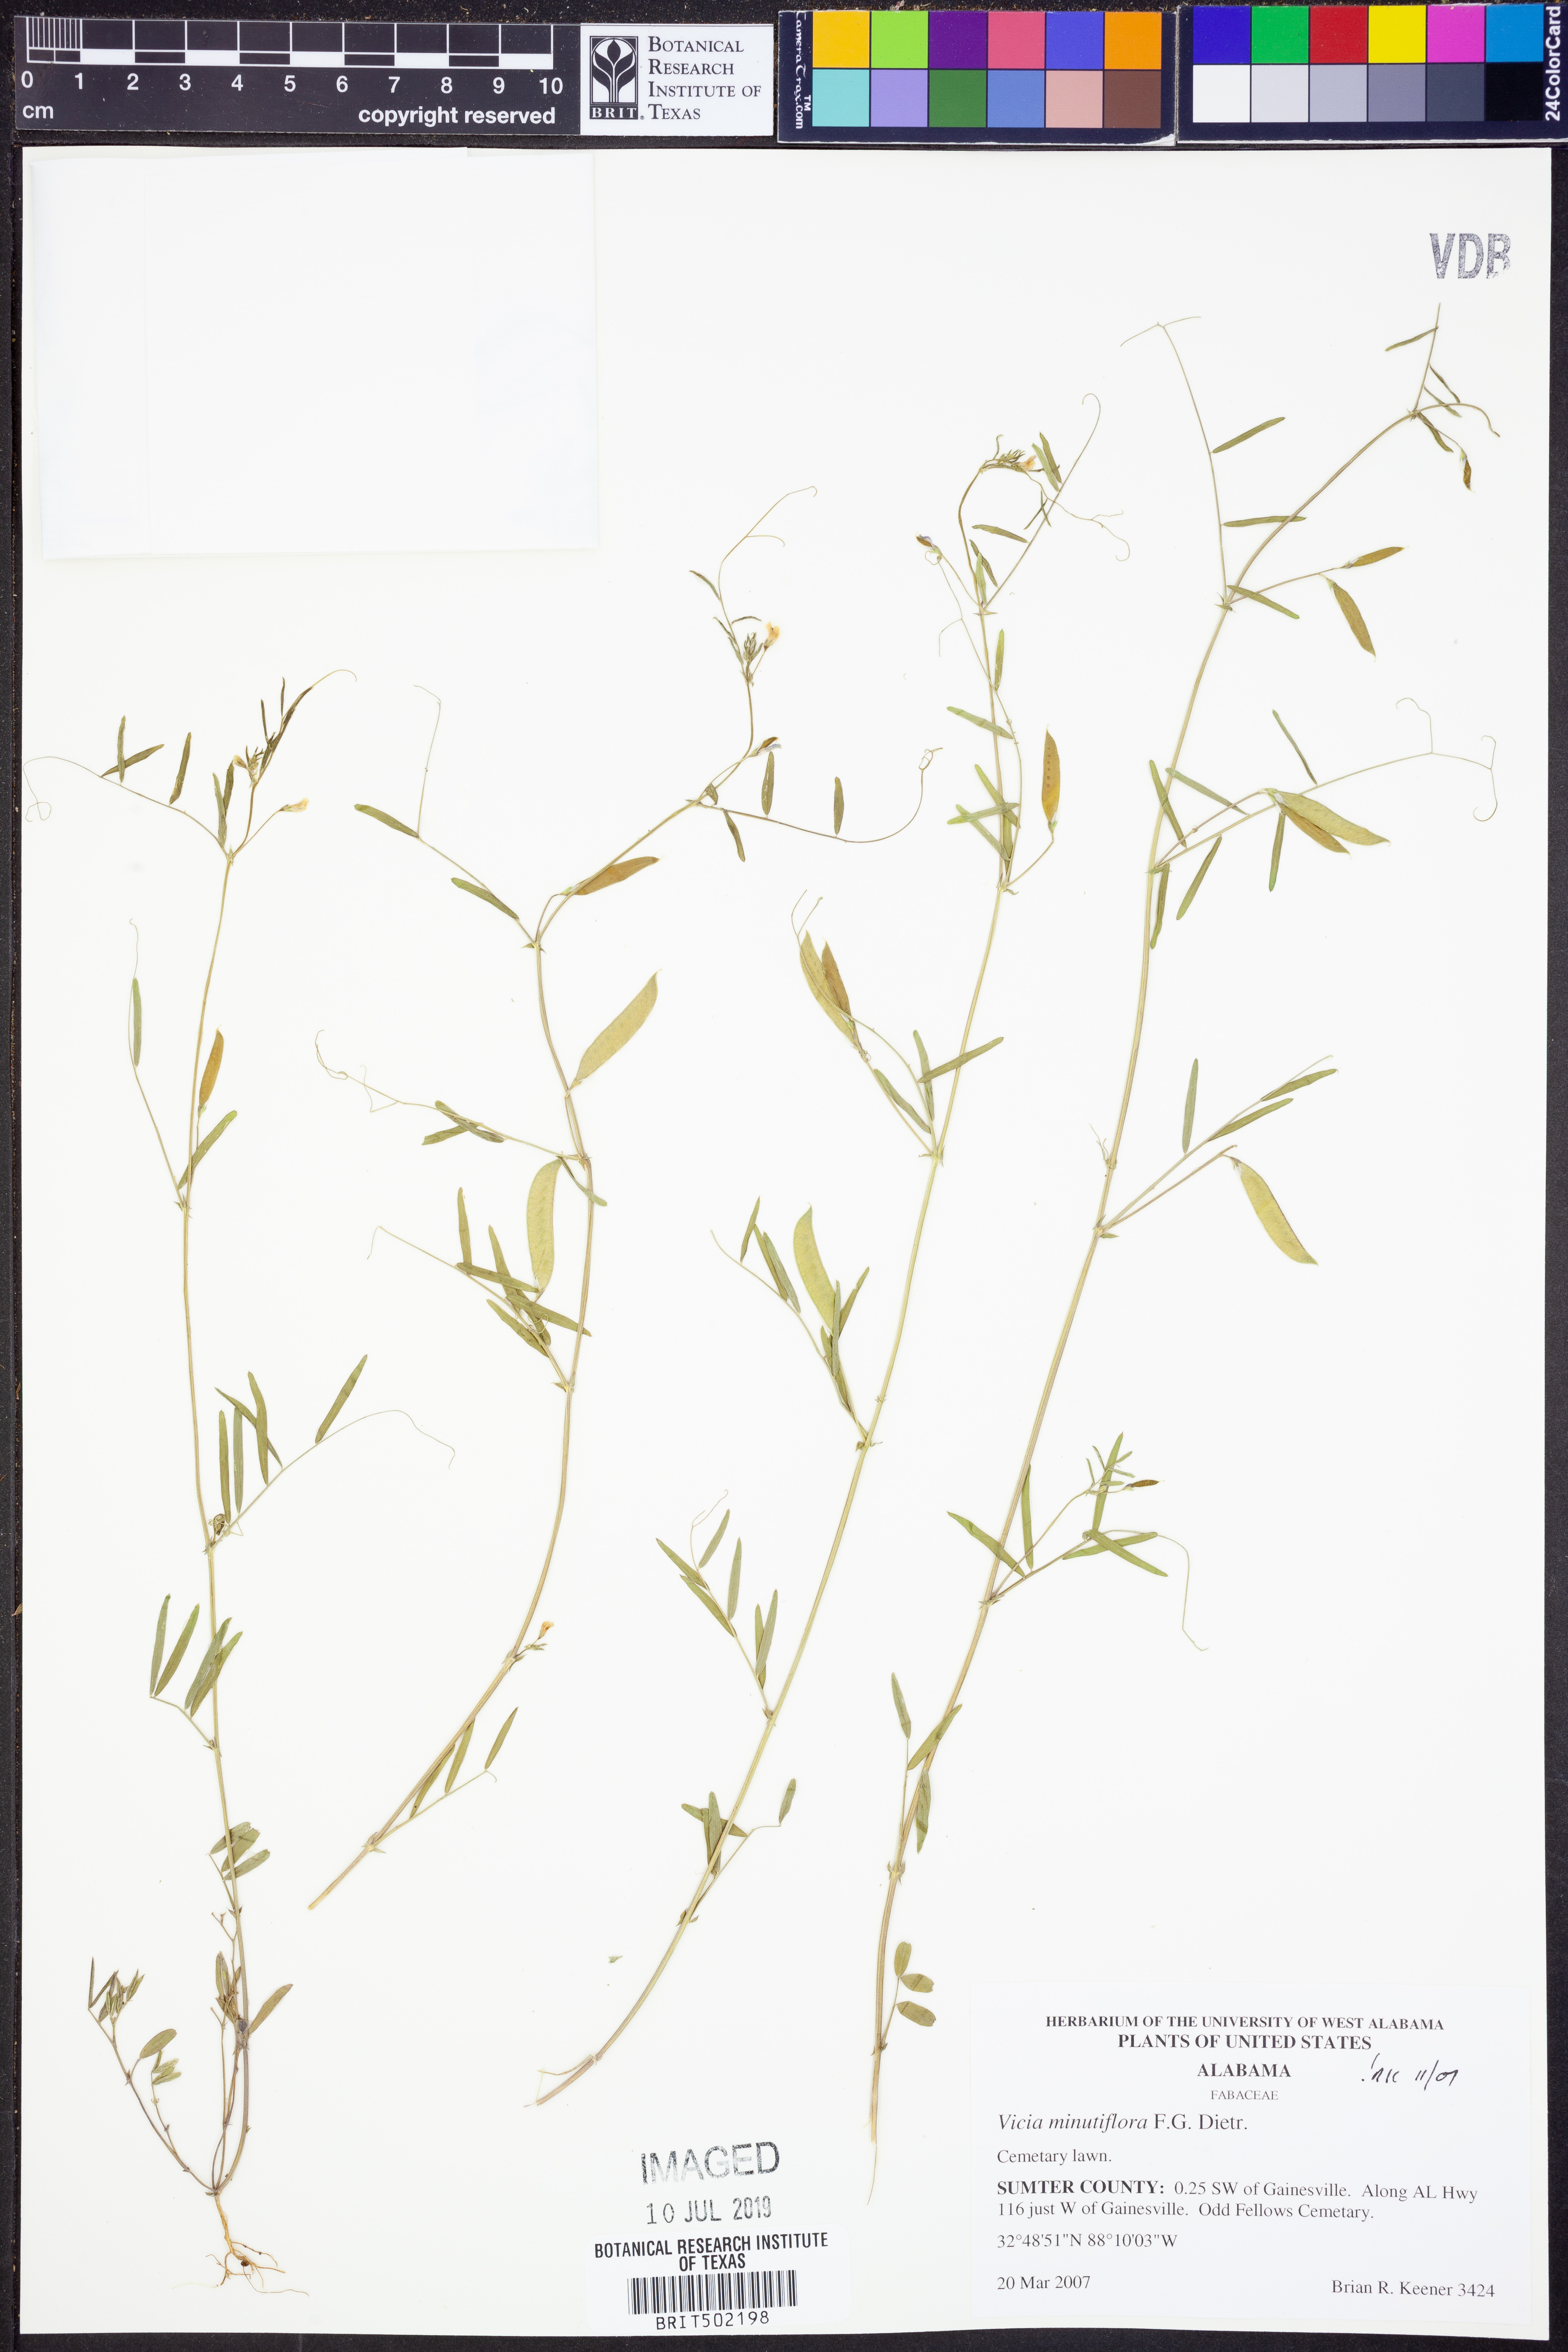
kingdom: Plantae
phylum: Tracheophyta
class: Magnoliopsida
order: Fabales
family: Fabaceae
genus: Vicia
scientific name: Vicia minutiflora
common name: Pygmy-flower vetch
